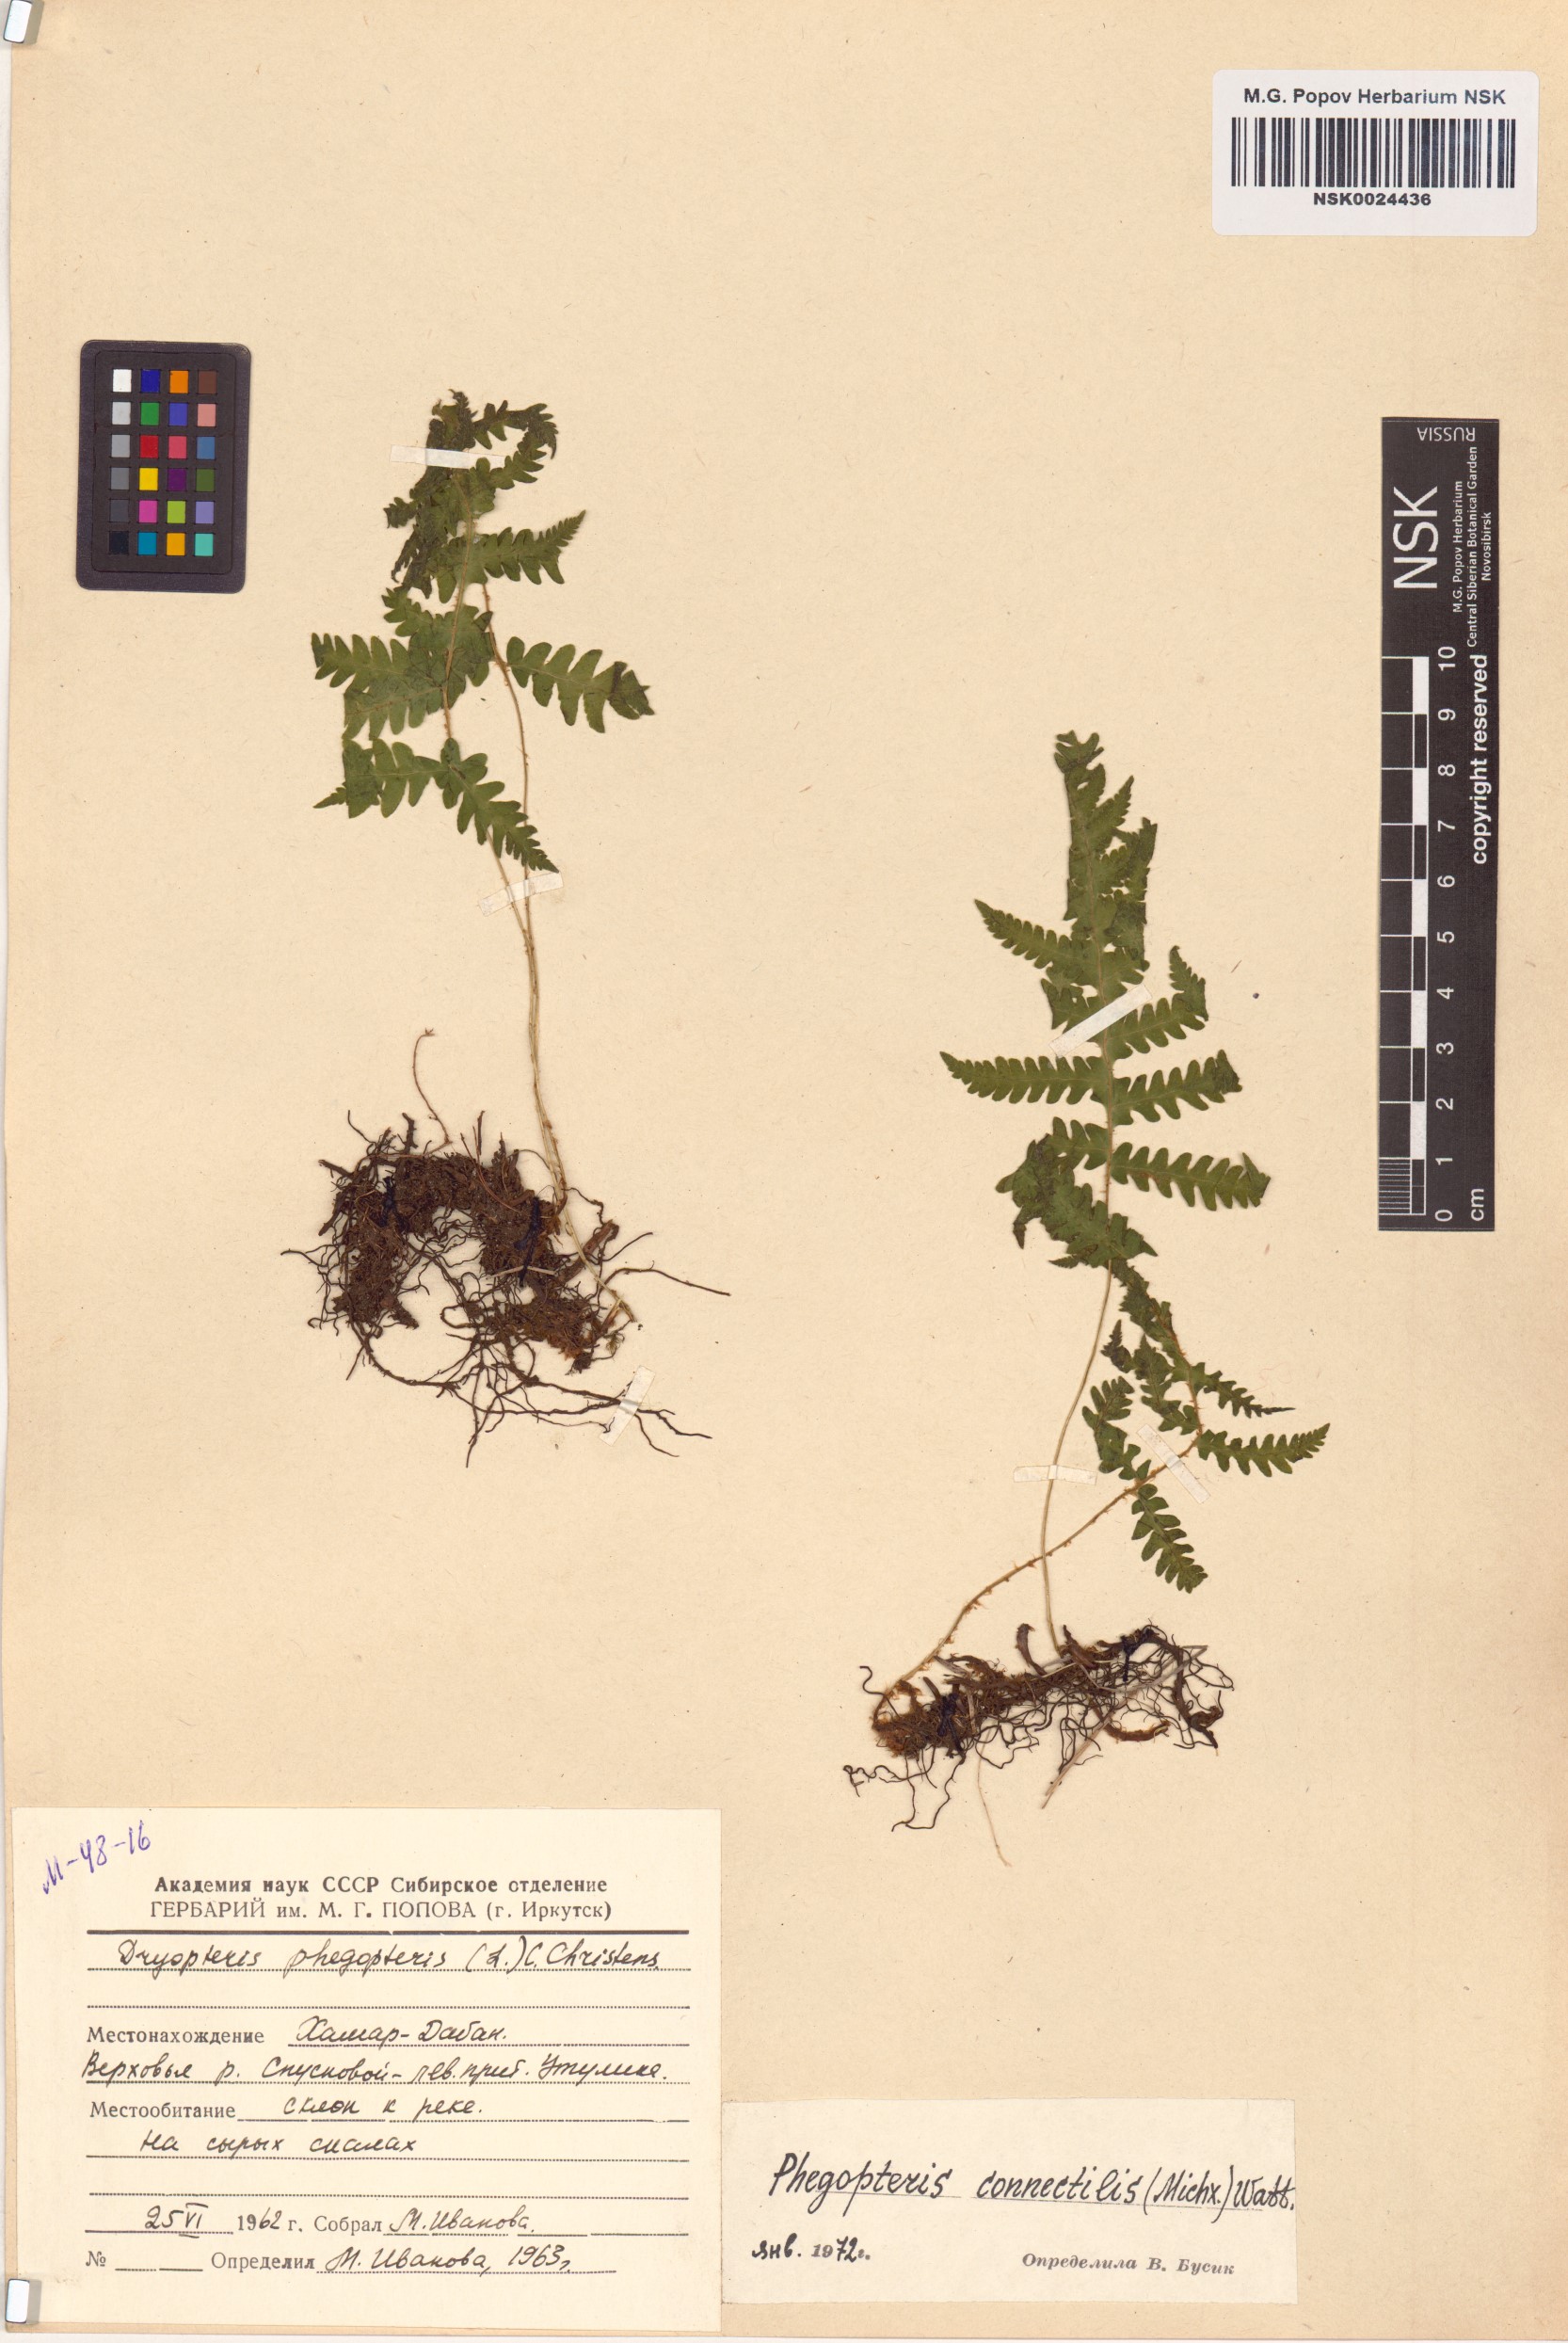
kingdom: Plantae
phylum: Tracheophyta
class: Polypodiopsida
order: Polypodiales
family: Thelypteridaceae
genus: Phegopteris
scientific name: Phegopteris connectilis
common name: Beech fern
